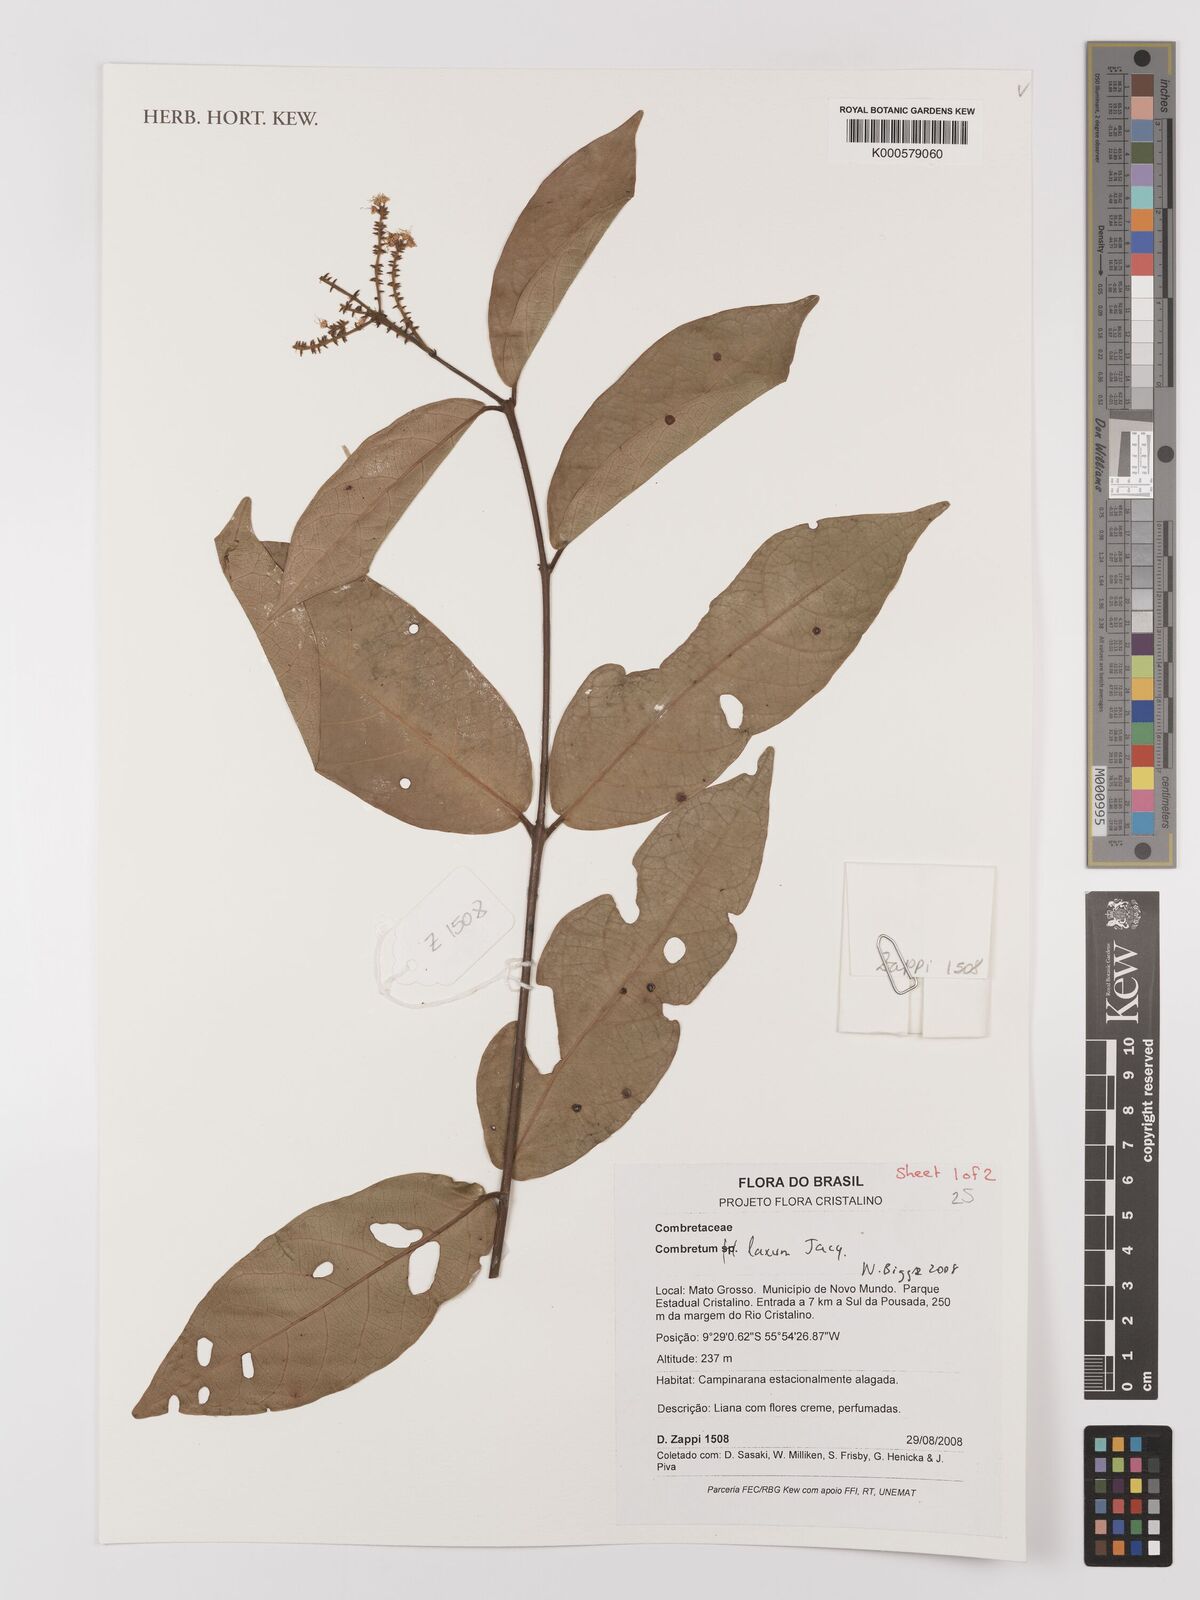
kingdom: Plantae
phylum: Tracheophyta
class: Magnoliopsida
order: Myrtales
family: Combretaceae
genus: Combretum
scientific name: Combretum laxum
